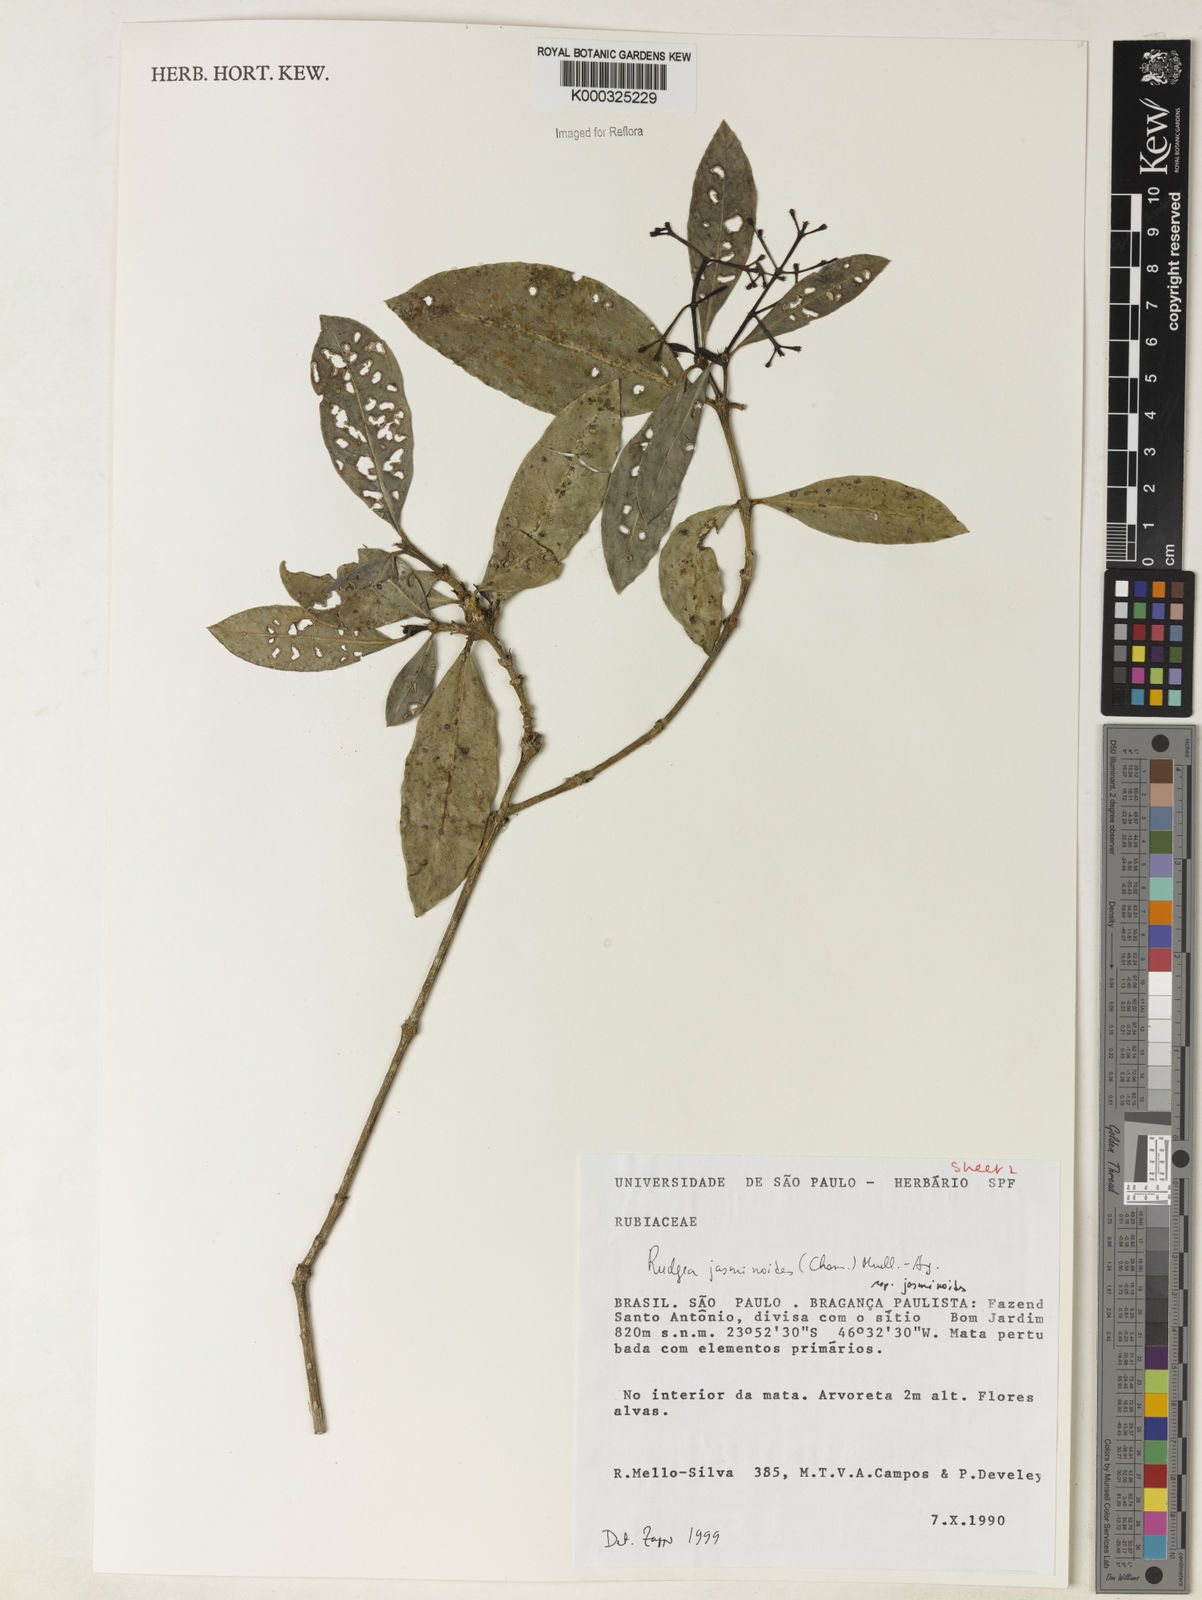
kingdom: Plantae
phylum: Tracheophyta
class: Magnoliopsida
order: Gentianales
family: Rubiaceae
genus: Rudgea
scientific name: Rudgea triflora
